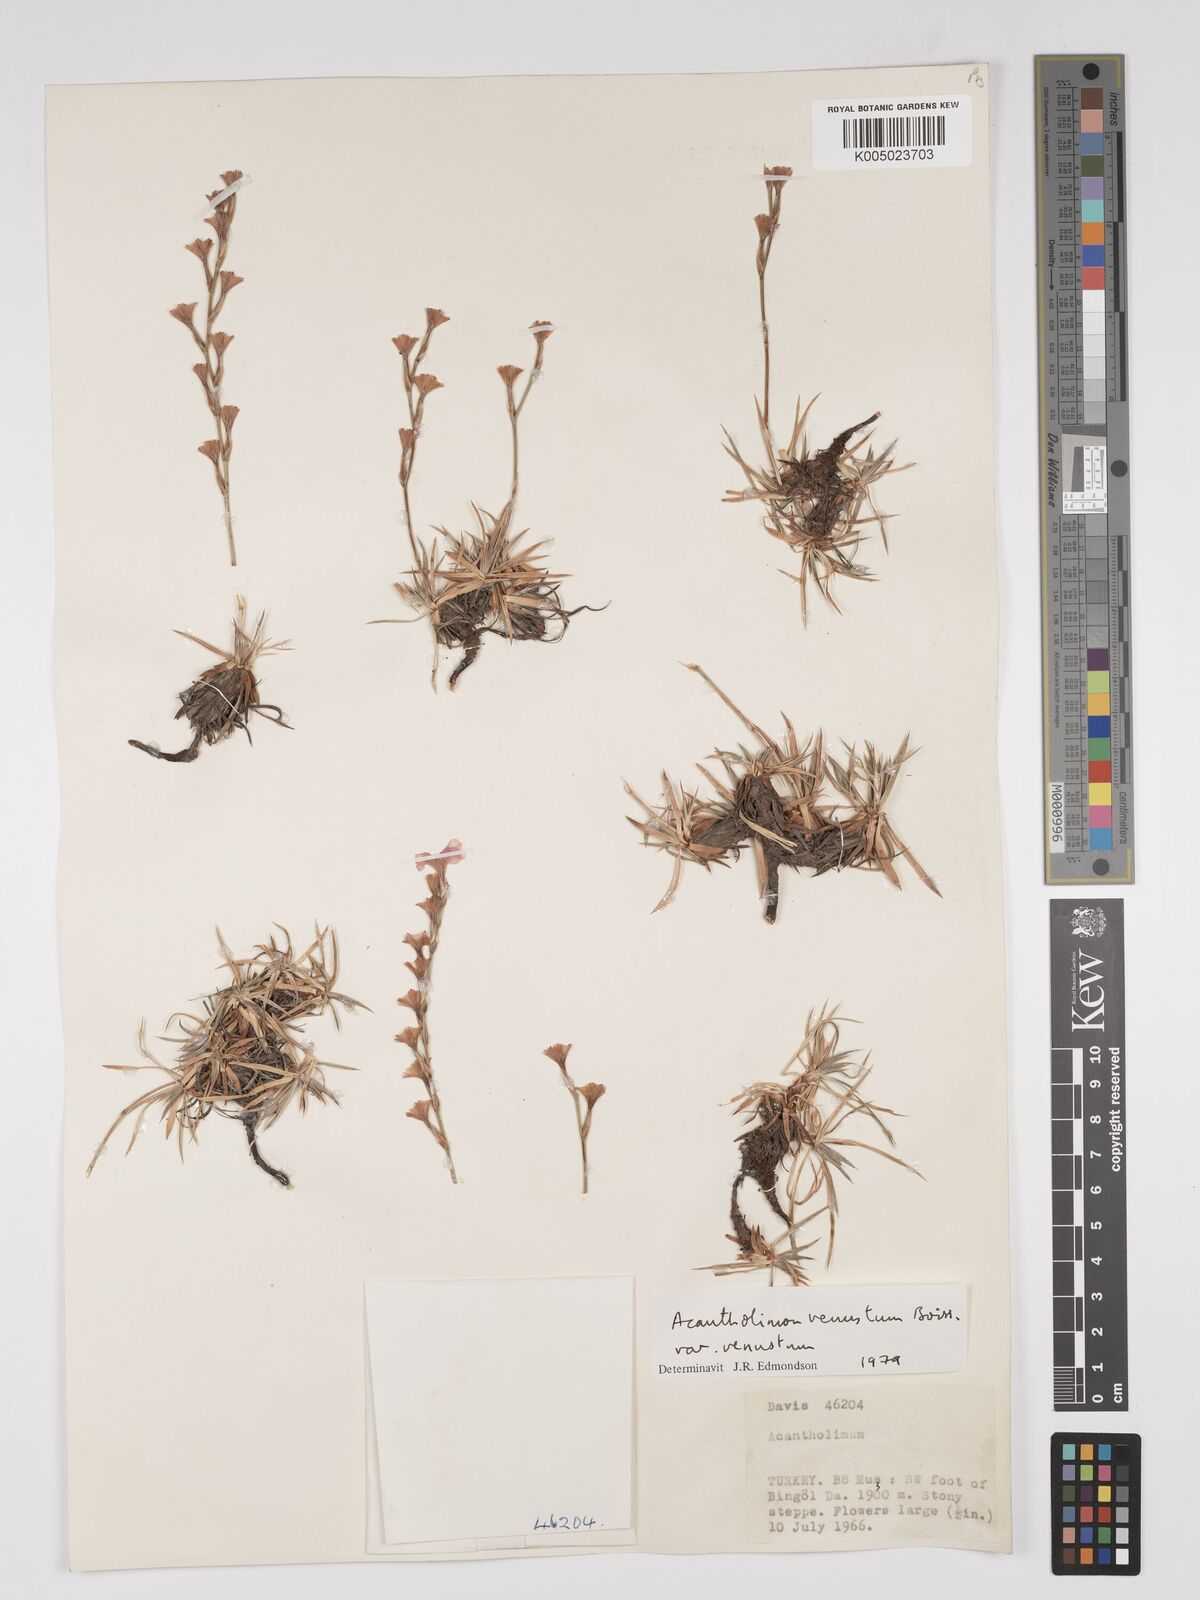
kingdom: Plantae
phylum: Tracheophyta
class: Magnoliopsida
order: Caryophyllales
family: Plumbaginaceae
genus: Acantholimon
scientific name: Acantholimon venustum
